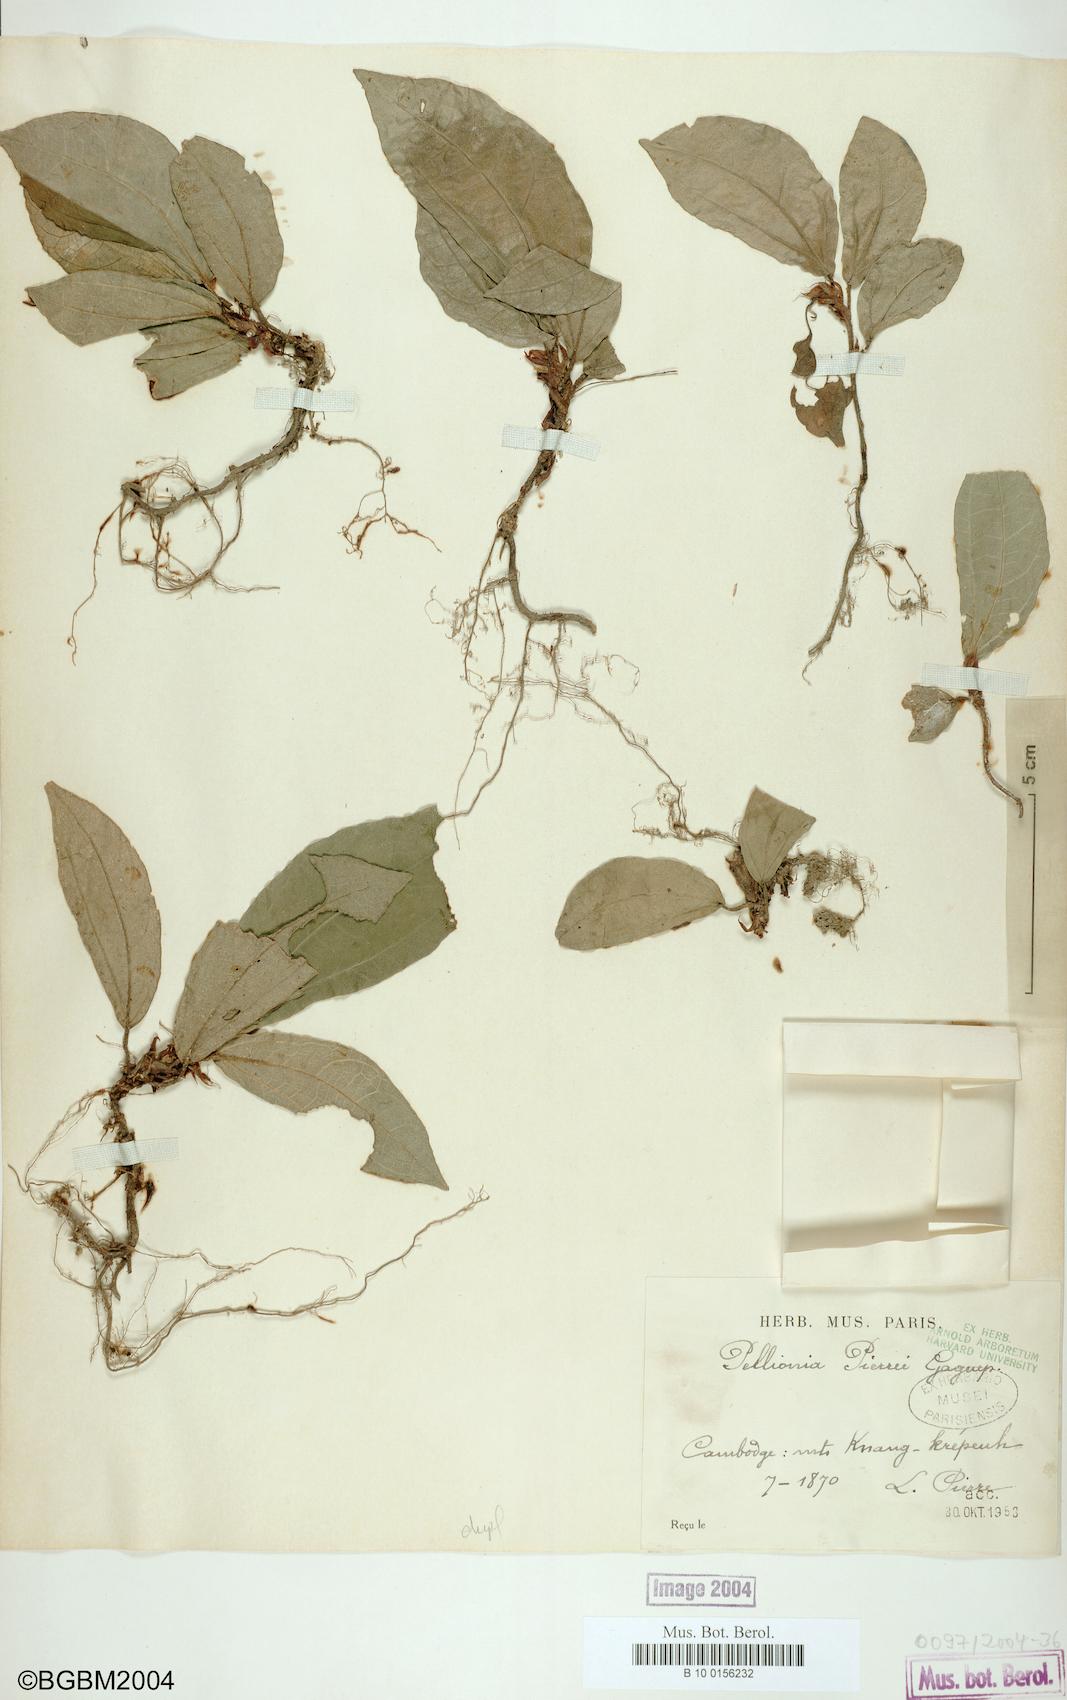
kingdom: Plantae
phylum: Tracheophyta
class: Magnoliopsida
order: Rosales
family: Urticaceae
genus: Elatostema
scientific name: Elatostema latifolium
